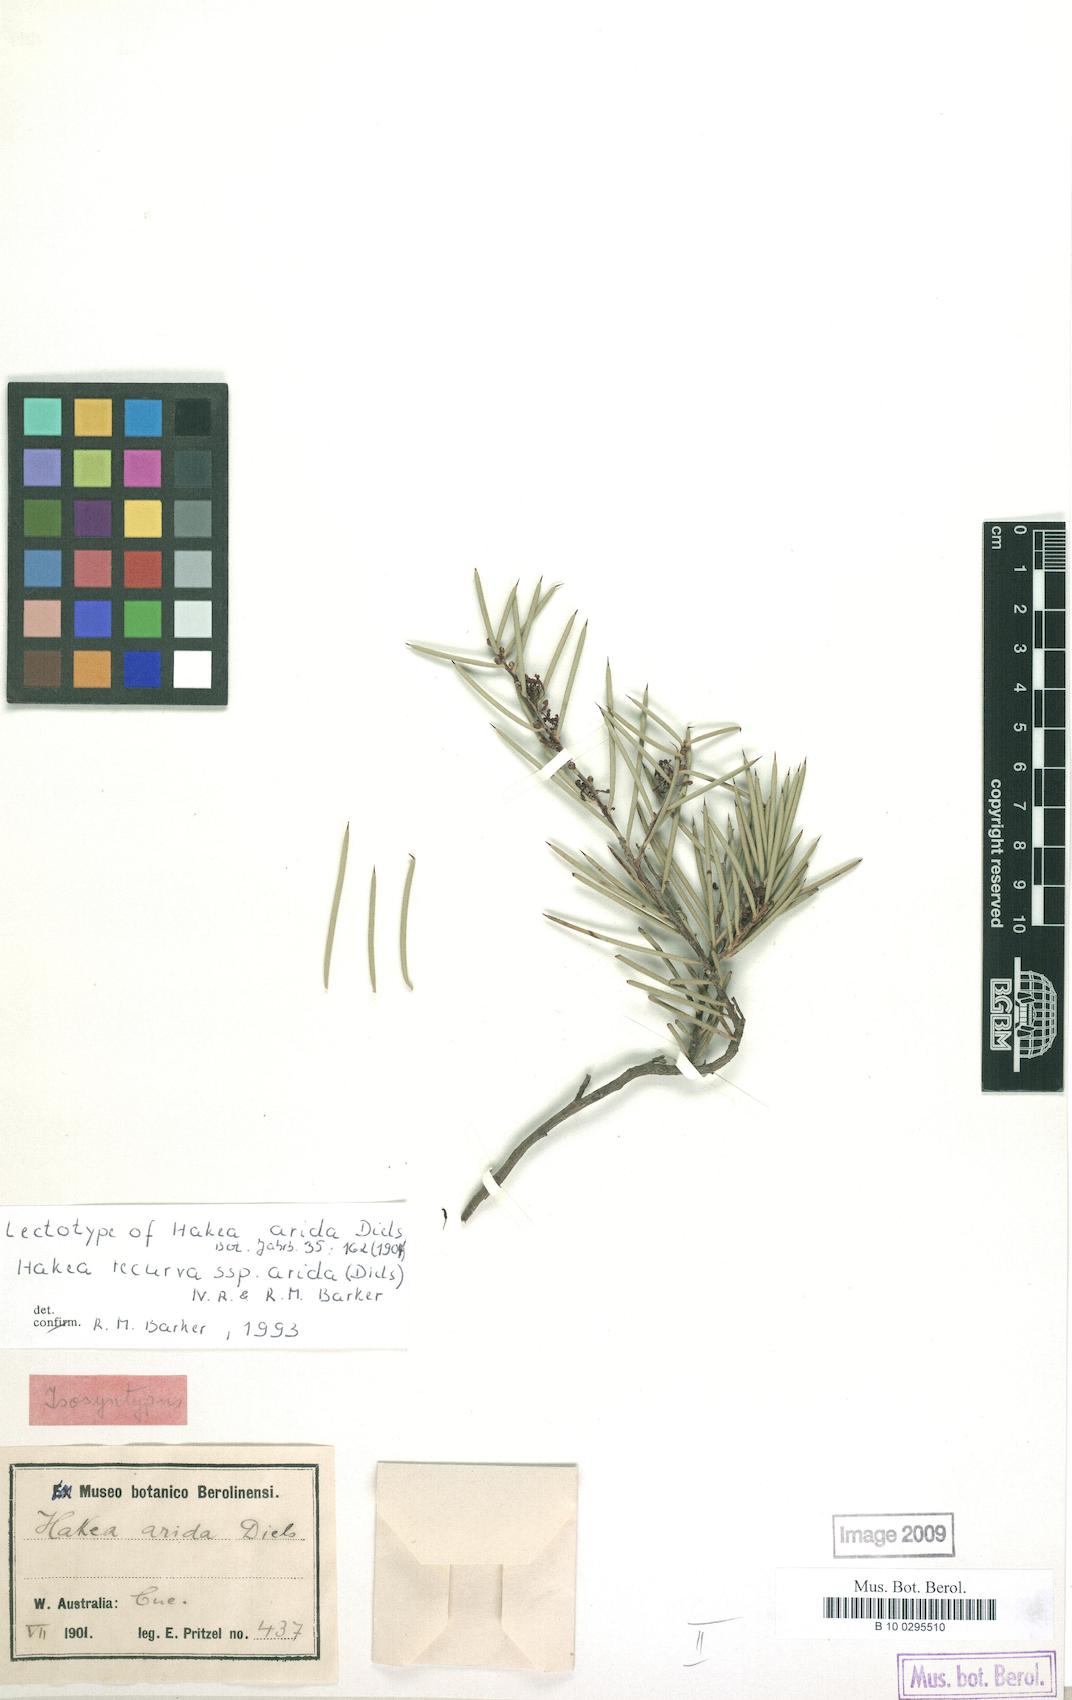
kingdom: Plantae
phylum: Tracheophyta
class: Magnoliopsida
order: Proteales
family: Proteaceae
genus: Hakea
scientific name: Hakea recurva
